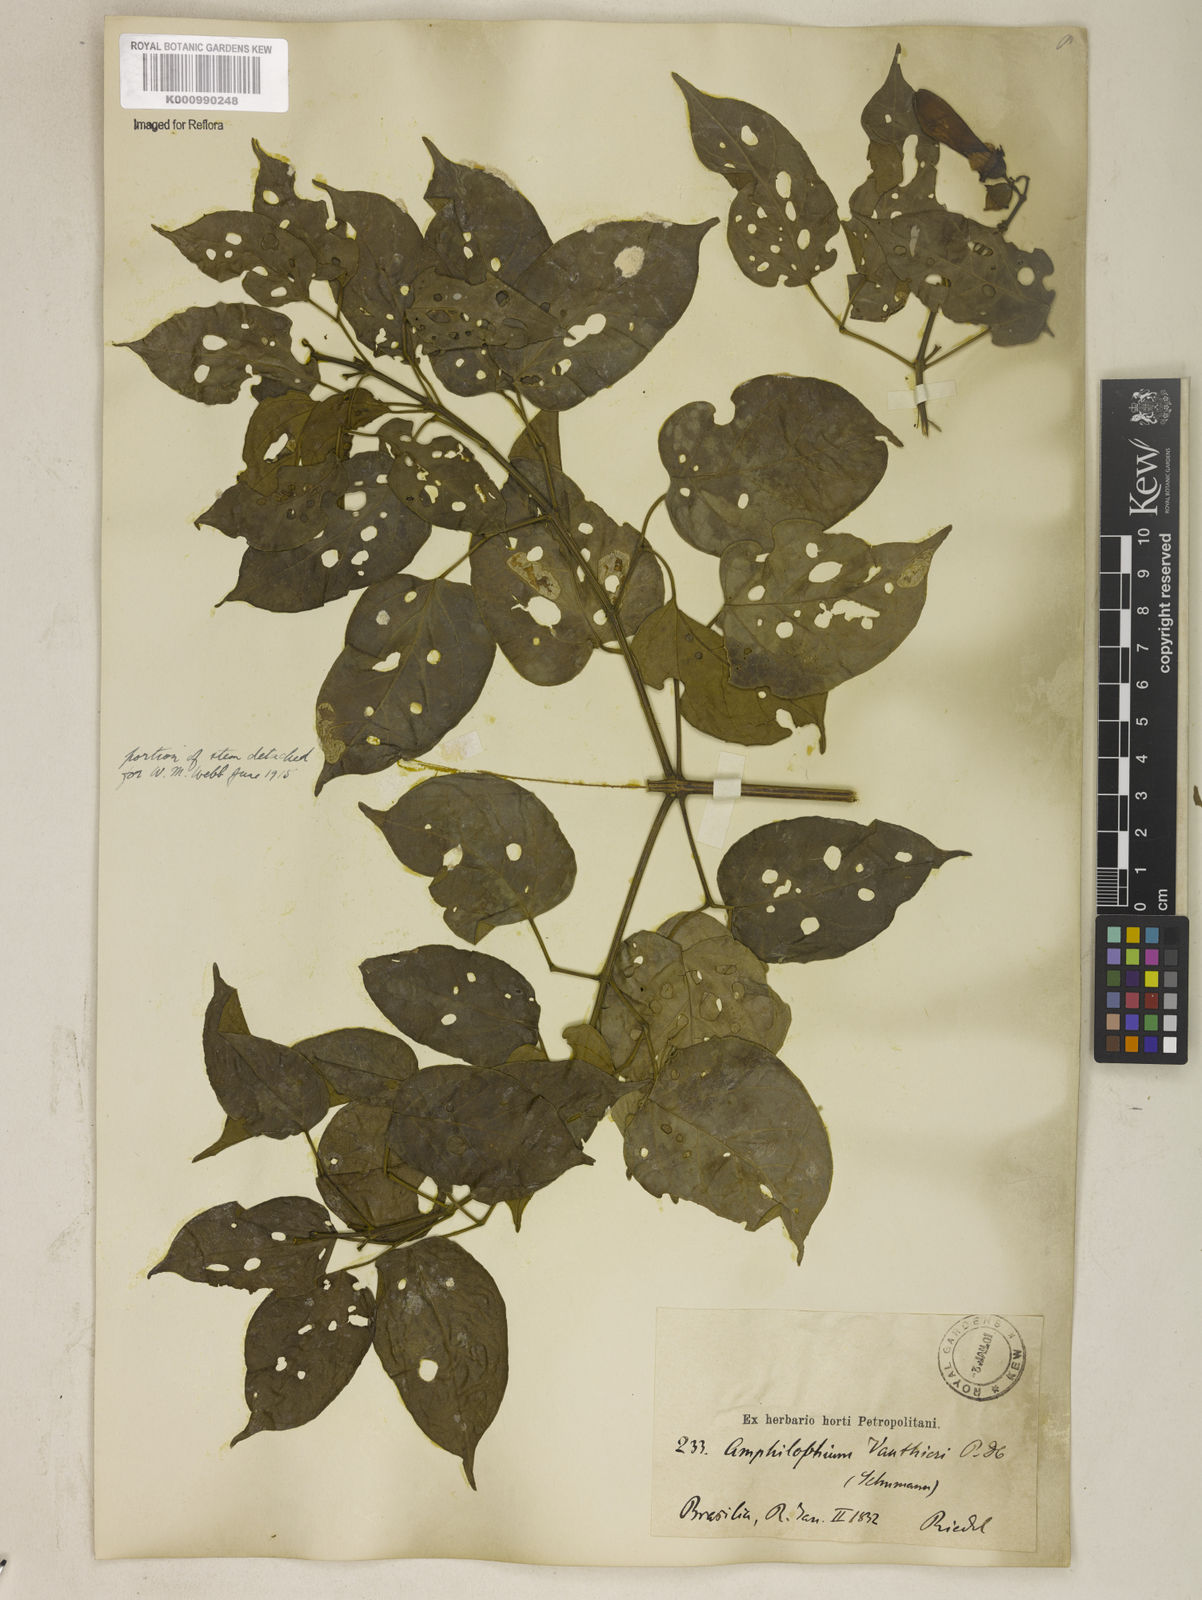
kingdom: Plantae
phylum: Tracheophyta
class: Magnoliopsida
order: Lamiales
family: Bignoniaceae
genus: Amphilophium
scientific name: Amphilophium paniculatum
